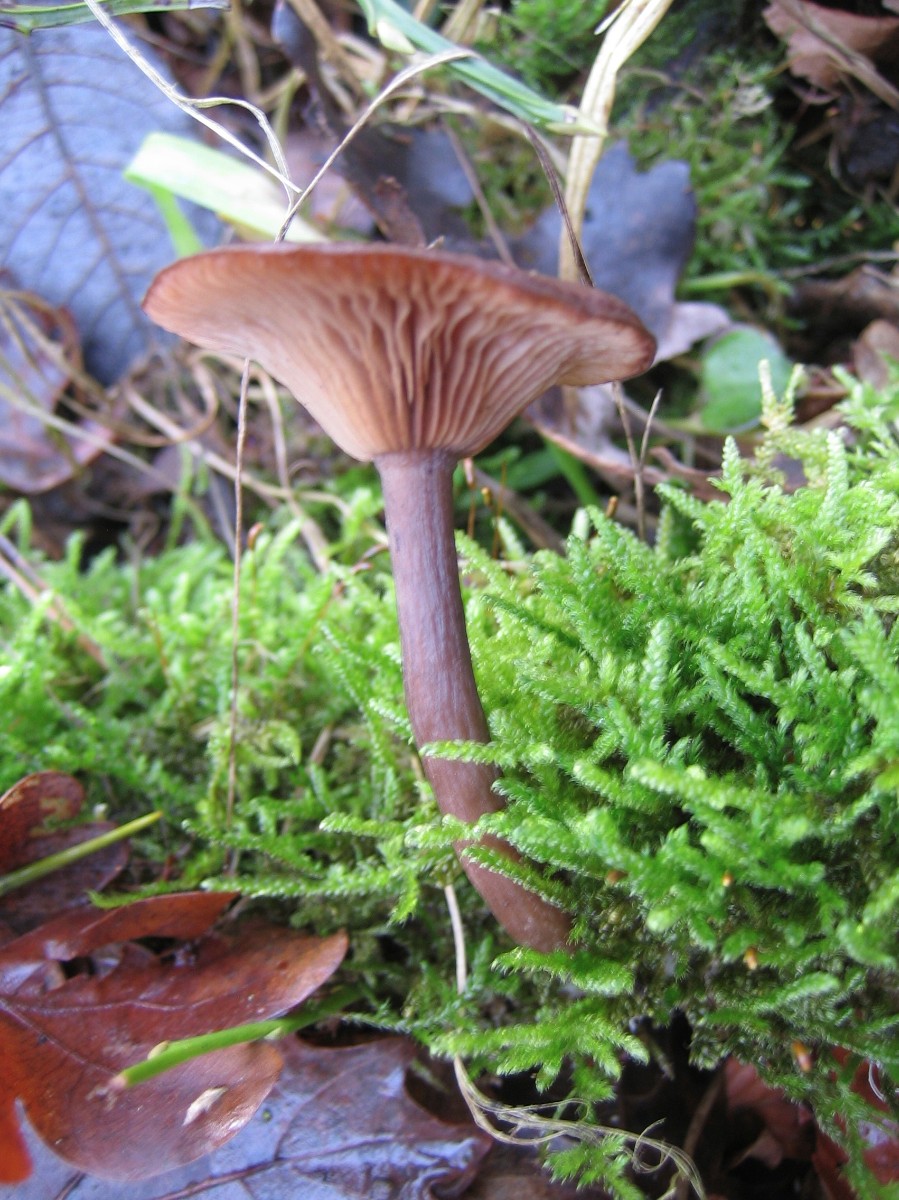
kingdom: Fungi
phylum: Basidiomycota
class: Agaricomycetes
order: Agaricales
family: Pseudoclitocybaceae
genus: Pseudoclitocybe
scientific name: Pseudoclitocybe cyathiformis
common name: almindelig bægertragthat
